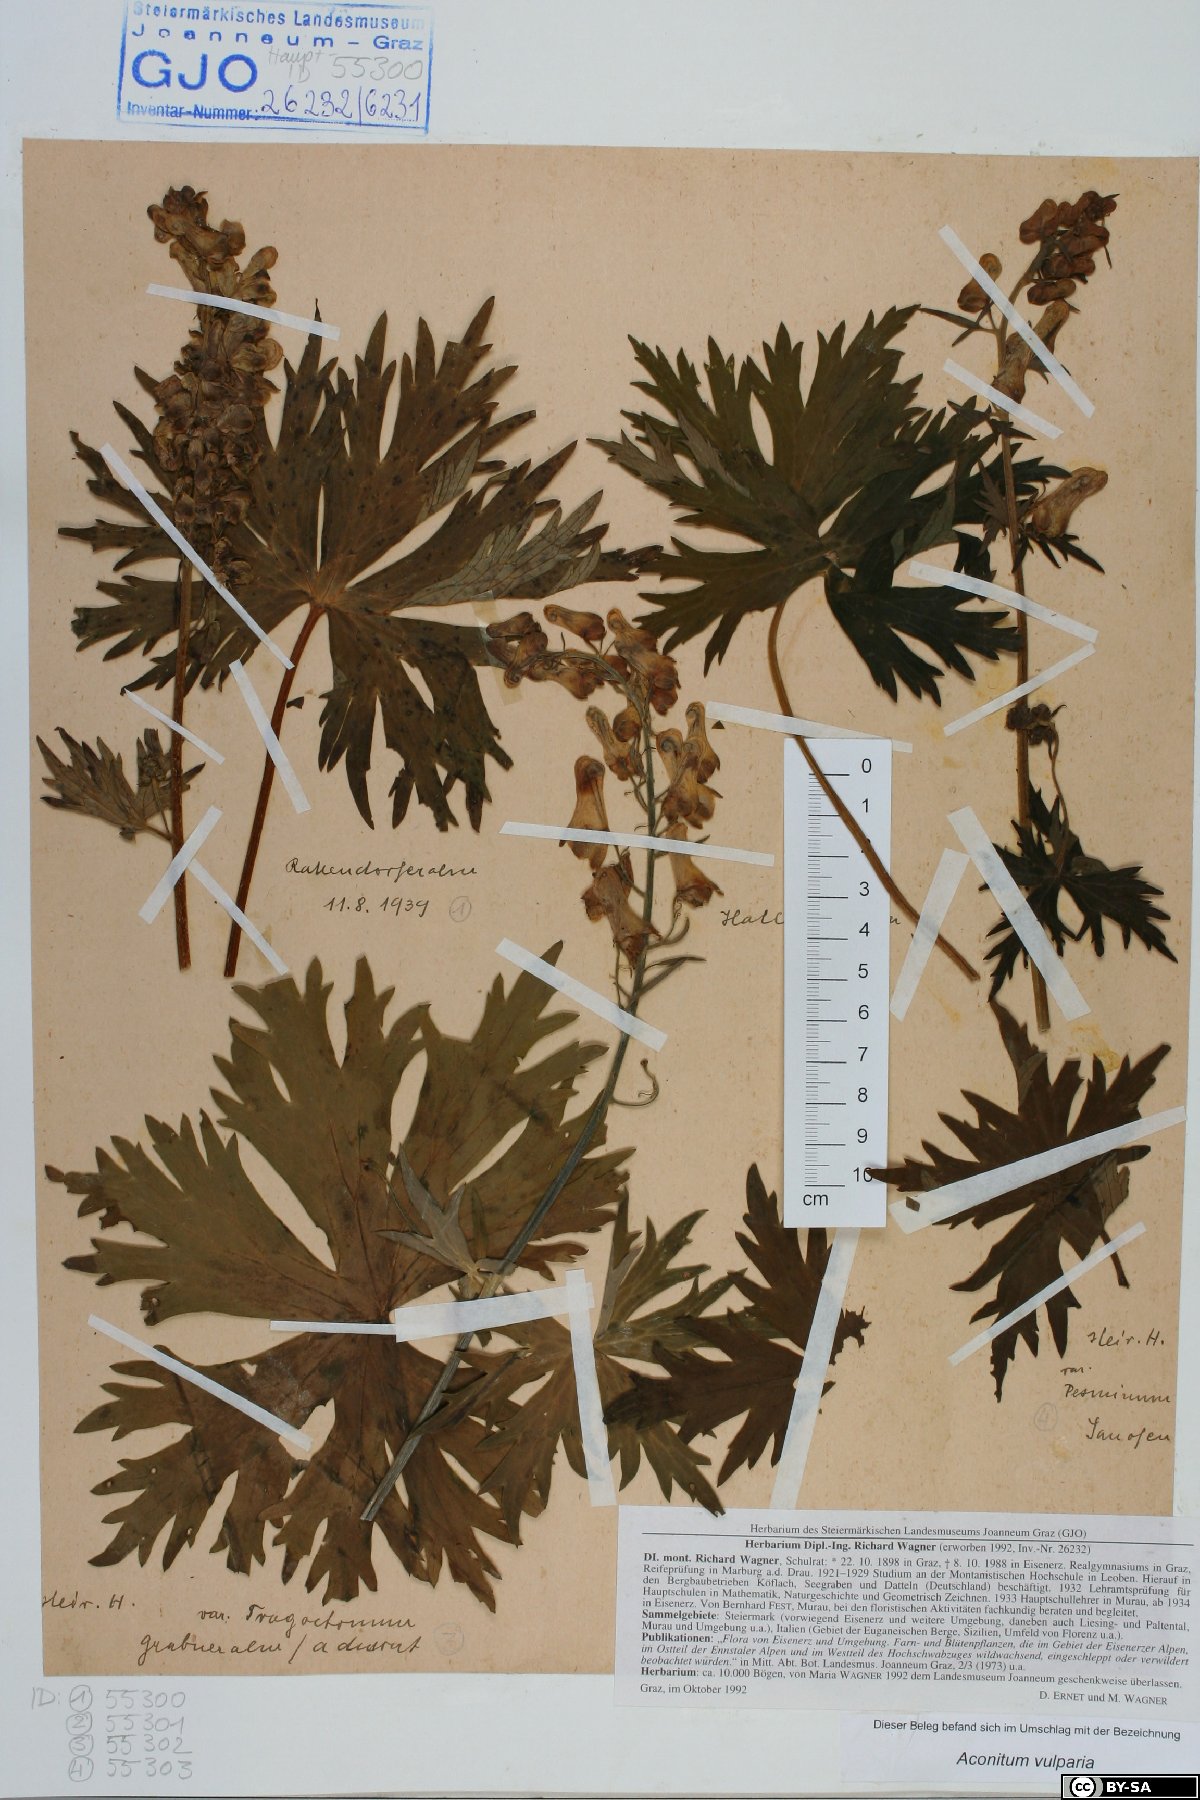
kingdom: Plantae
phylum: Tracheophyta
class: Magnoliopsida
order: Ranunculales
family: Ranunculaceae
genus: Aconitum
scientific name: Aconitum lycoctonum
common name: Wolf's-bane
